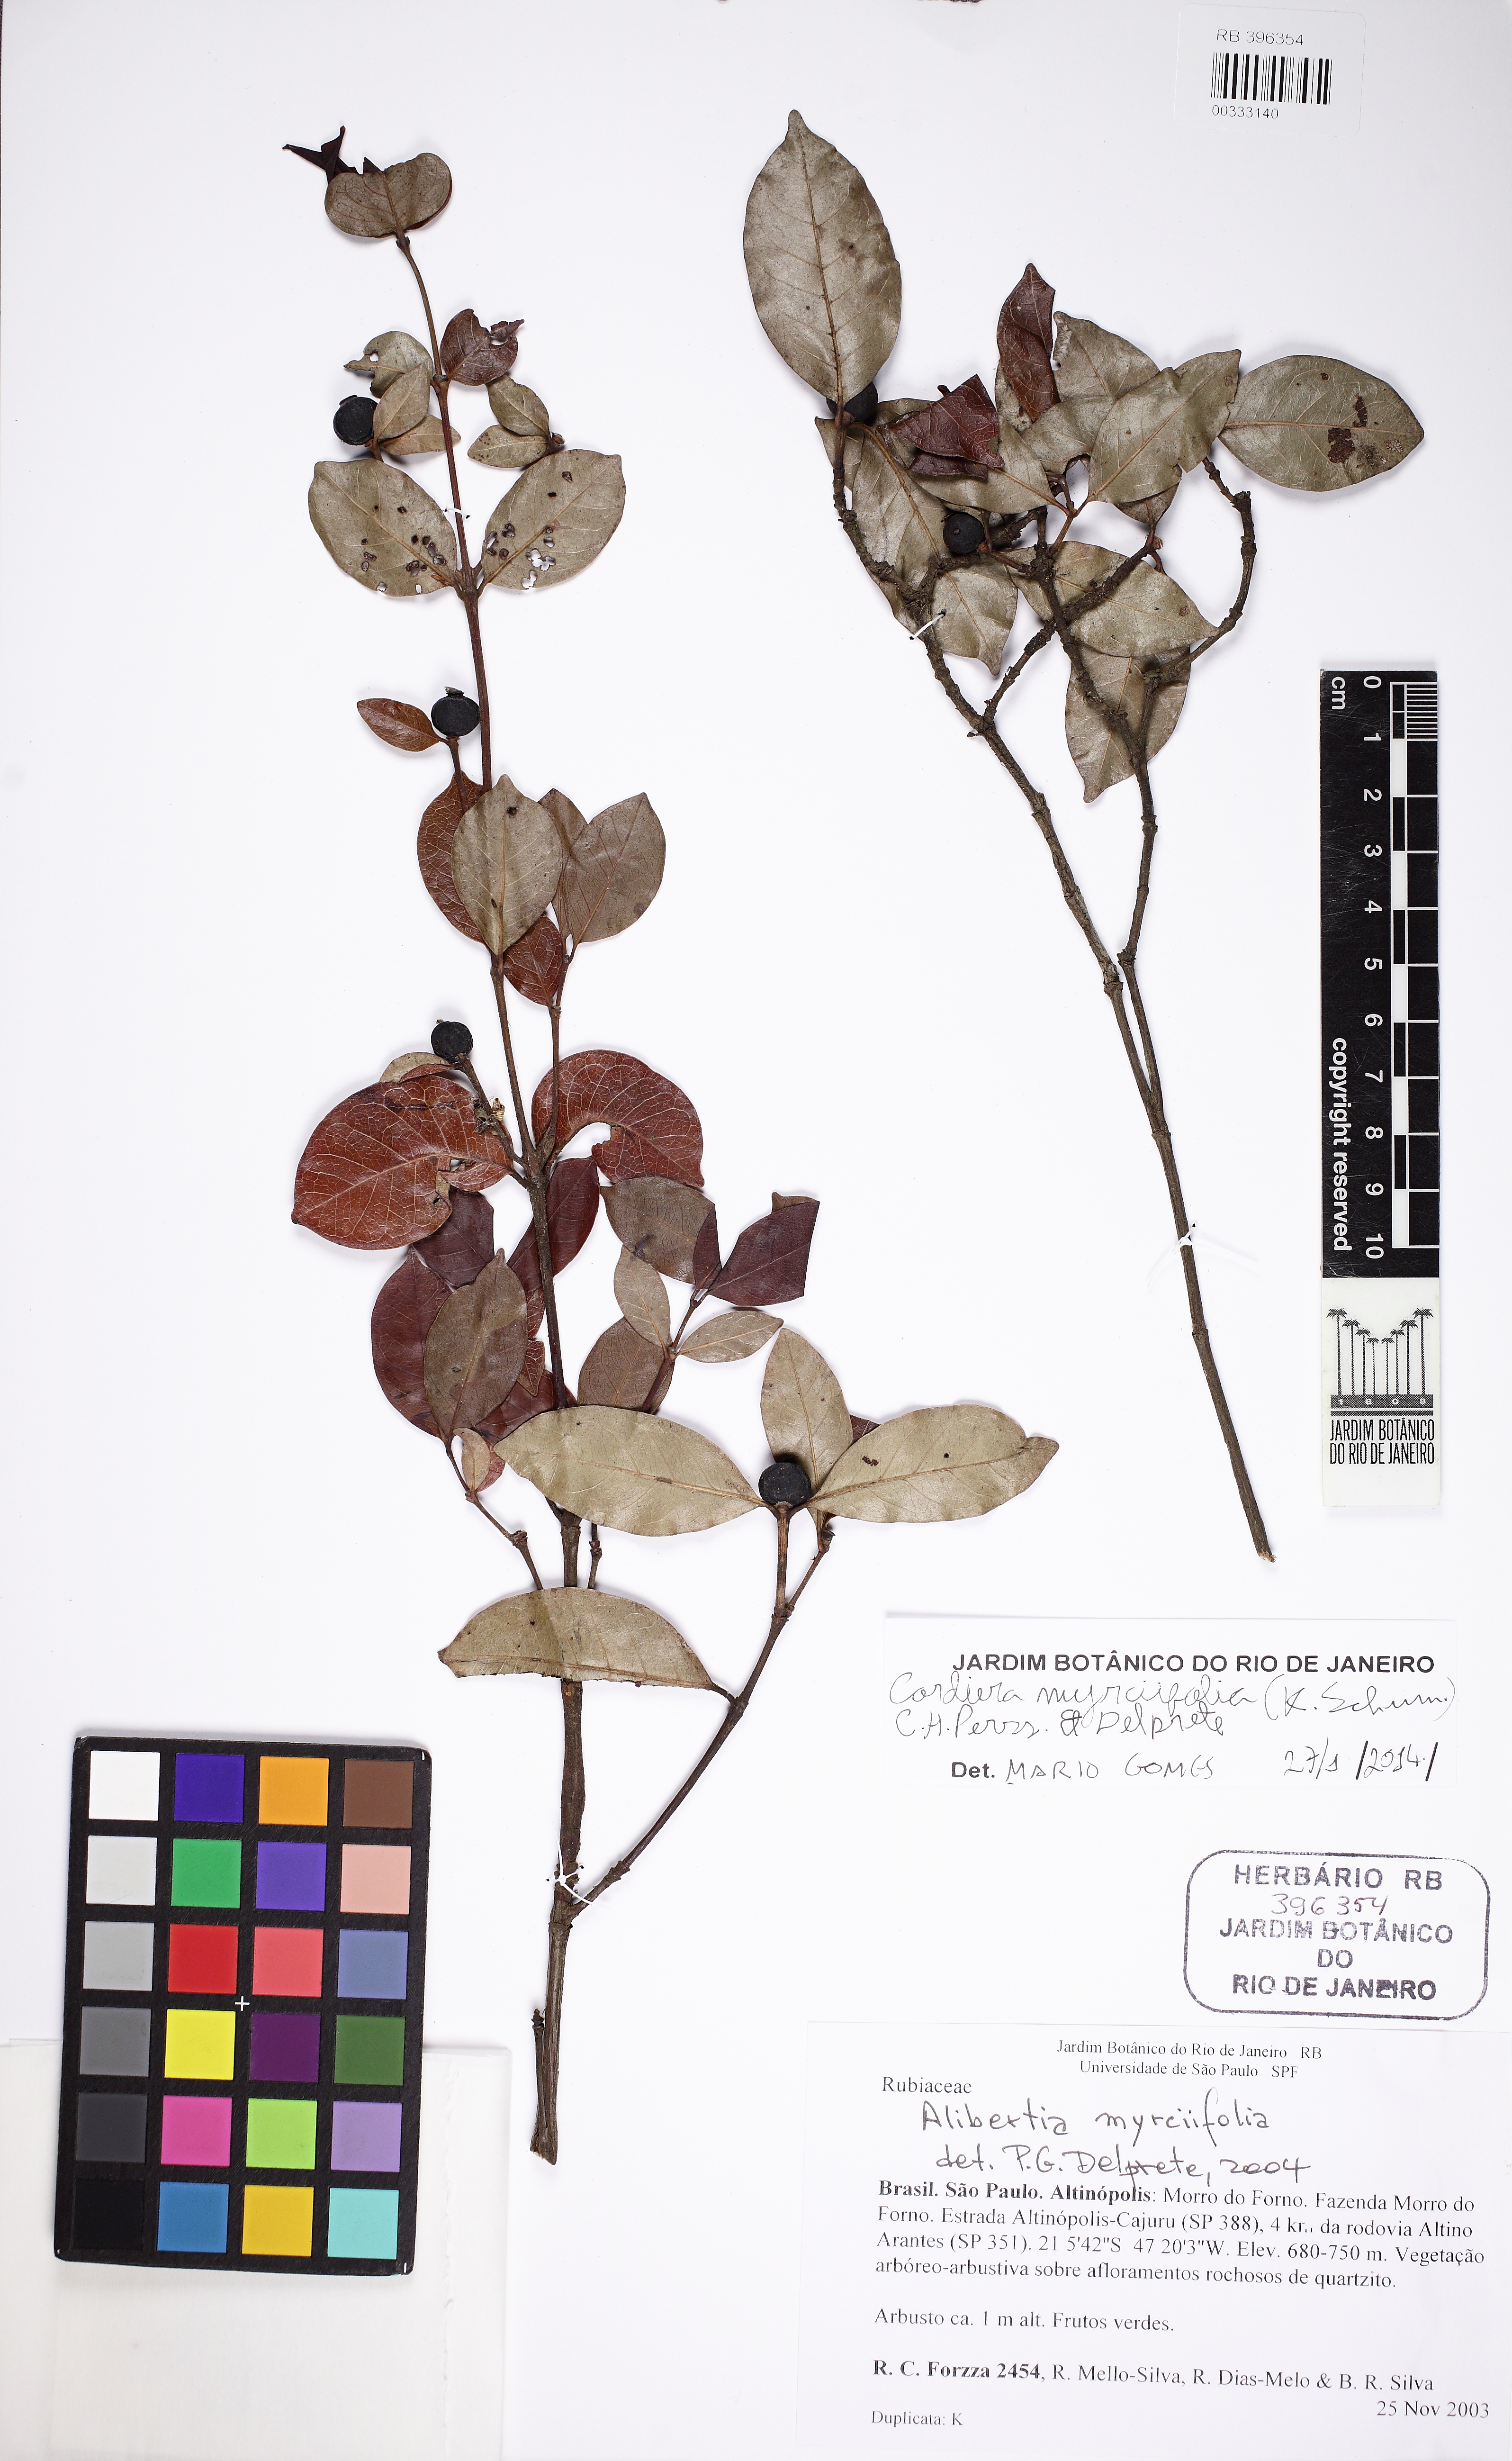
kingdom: Plantae
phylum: Tracheophyta
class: Magnoliopsida
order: Gentianales
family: Rubiaceae
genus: Cordiera
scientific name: Cordiera myrciifolia
